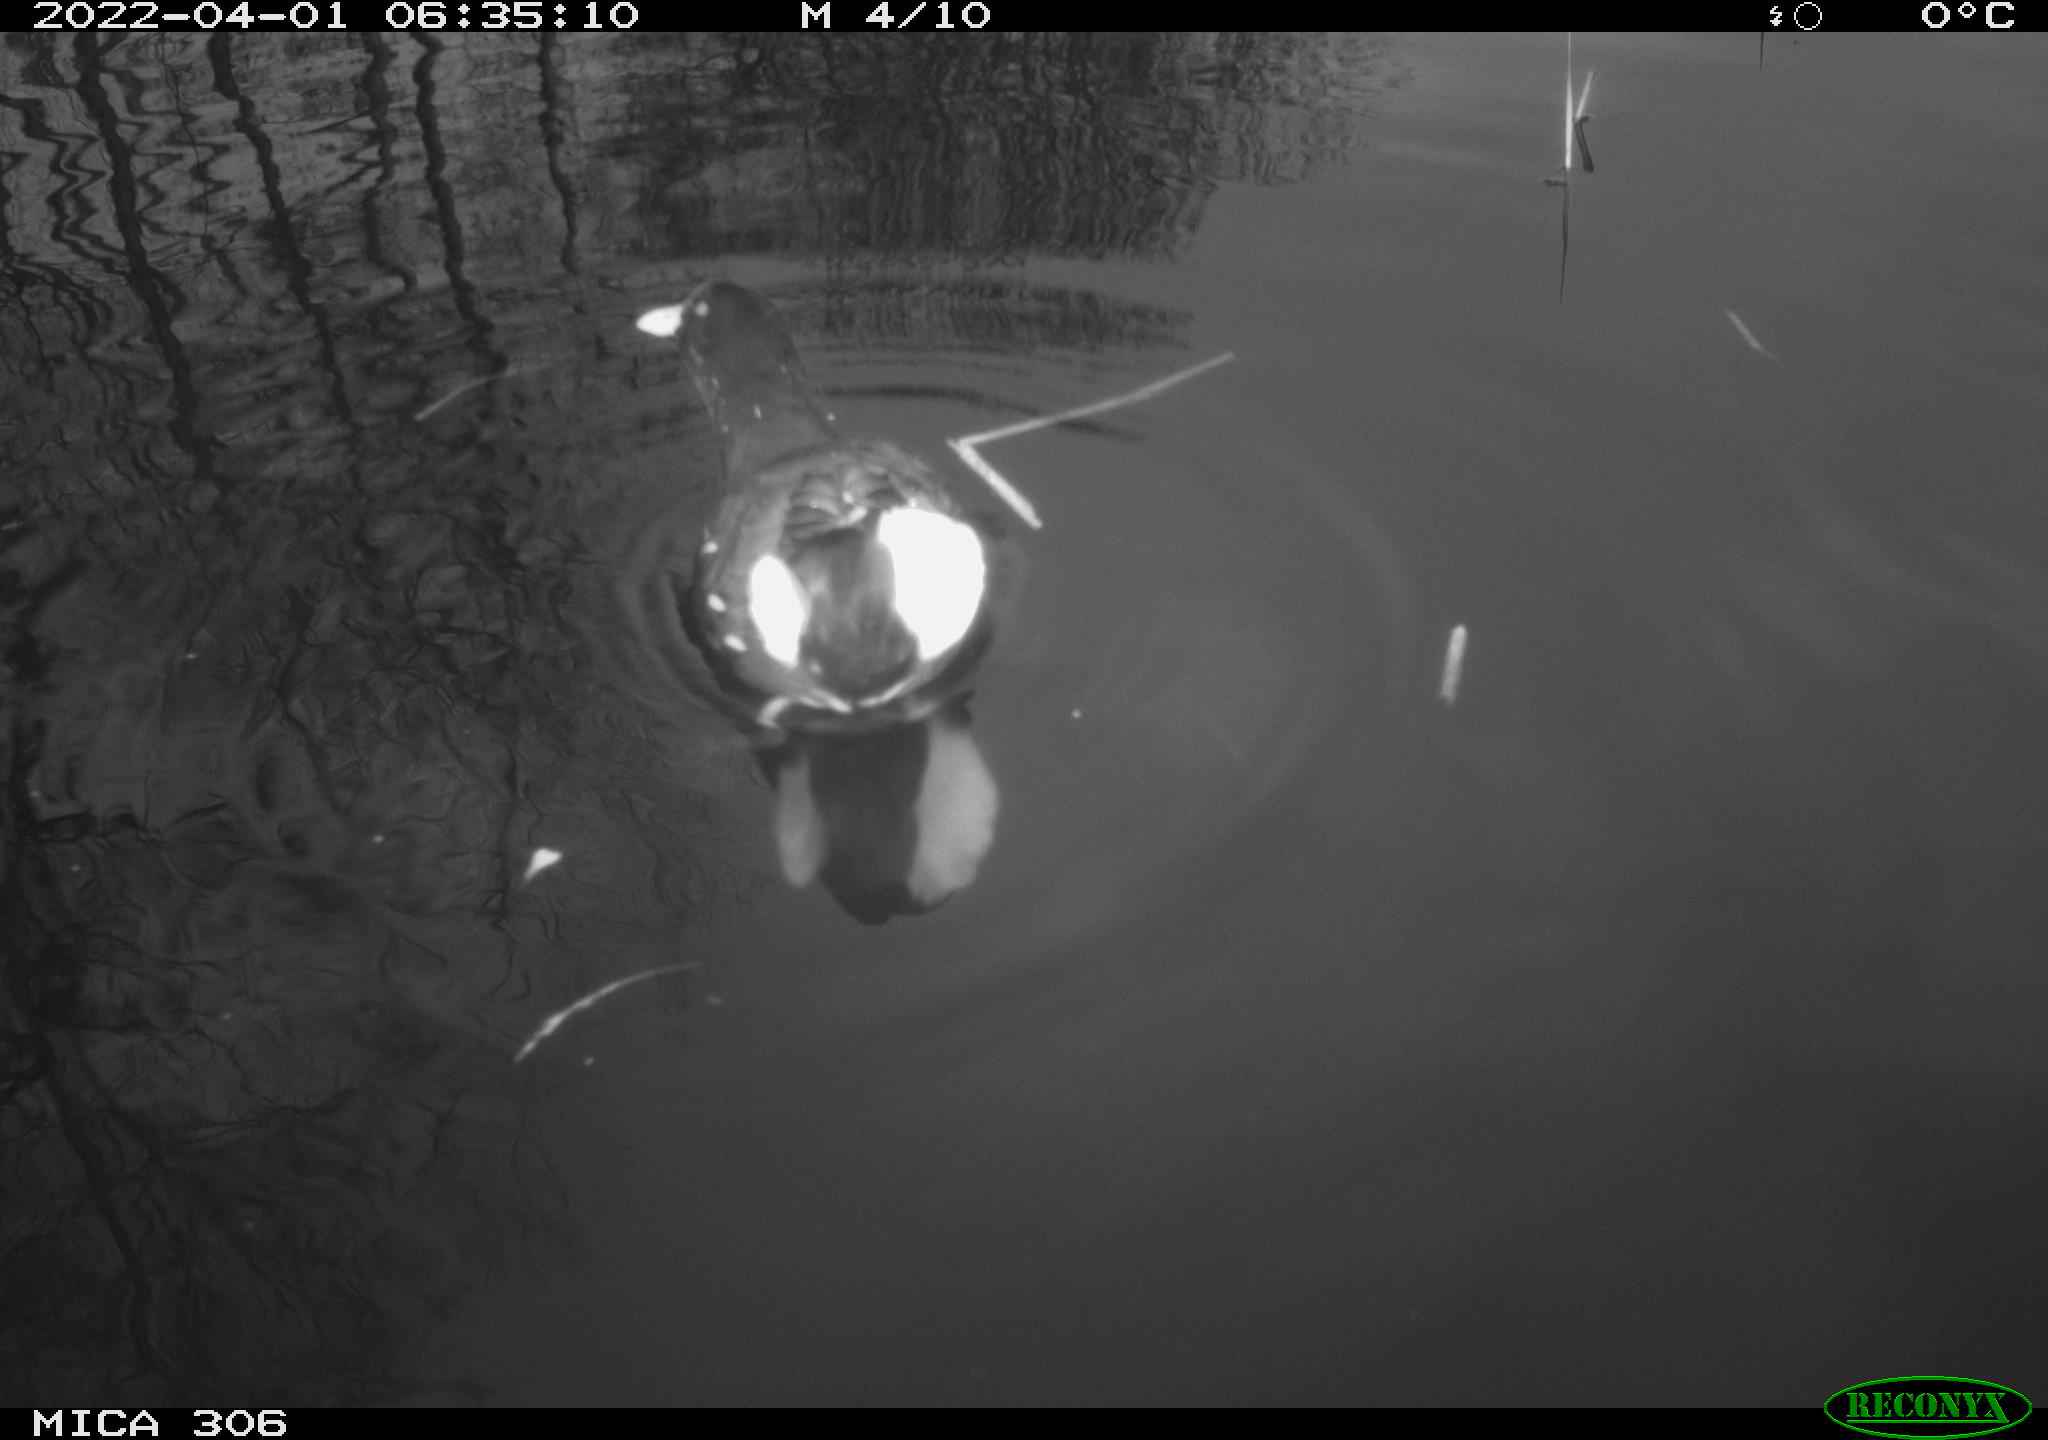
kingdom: Animalia
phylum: Chordata
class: Aves
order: Gruiformes
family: Rallidae
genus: Gallinula
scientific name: Gallinula chloropus
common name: Common moorhen
